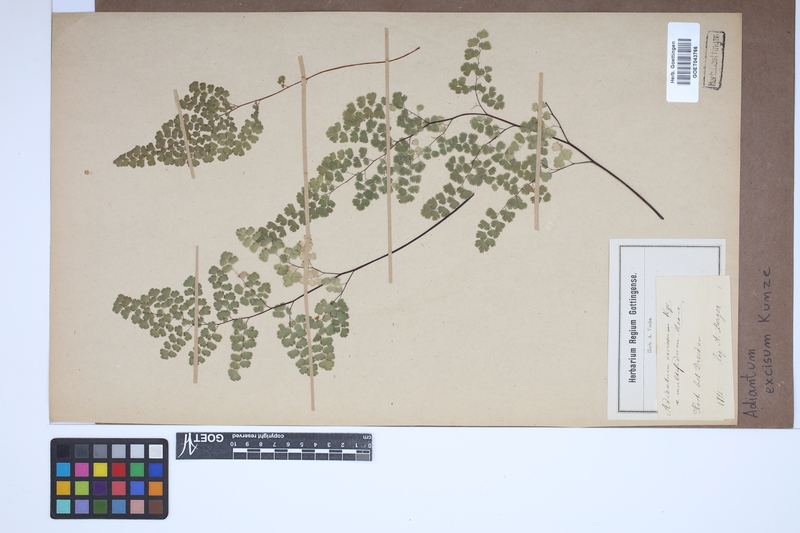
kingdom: Plantae
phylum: Tracheophyta
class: Polypodiopsida
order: Polypodiales
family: Pteridaceae
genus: Adiantum
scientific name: Adiantum excisum
